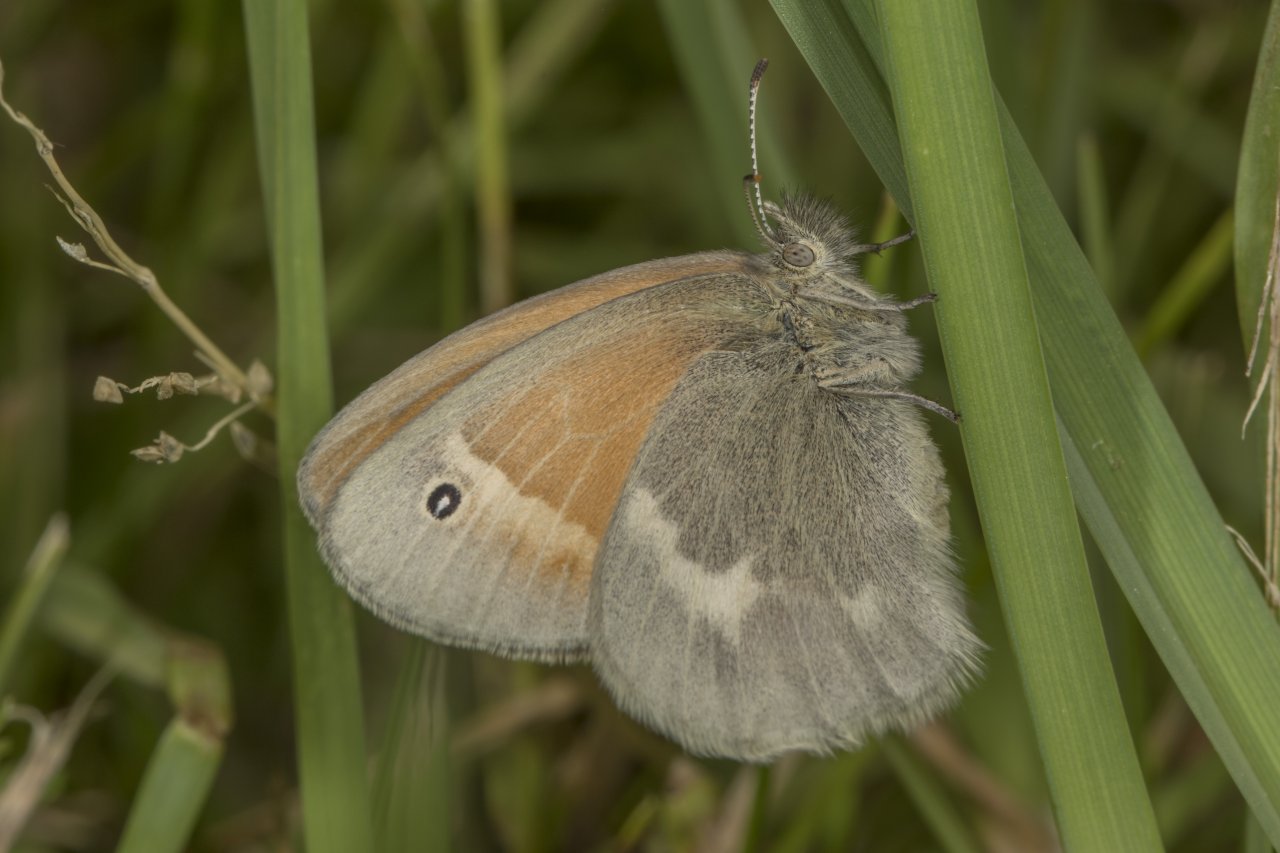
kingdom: Animalia
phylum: Arthropoda
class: Insecta
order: Lepidoptera
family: Nymphalidae
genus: Coenonympha
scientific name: Coenonympha tullia
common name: Large Heath
